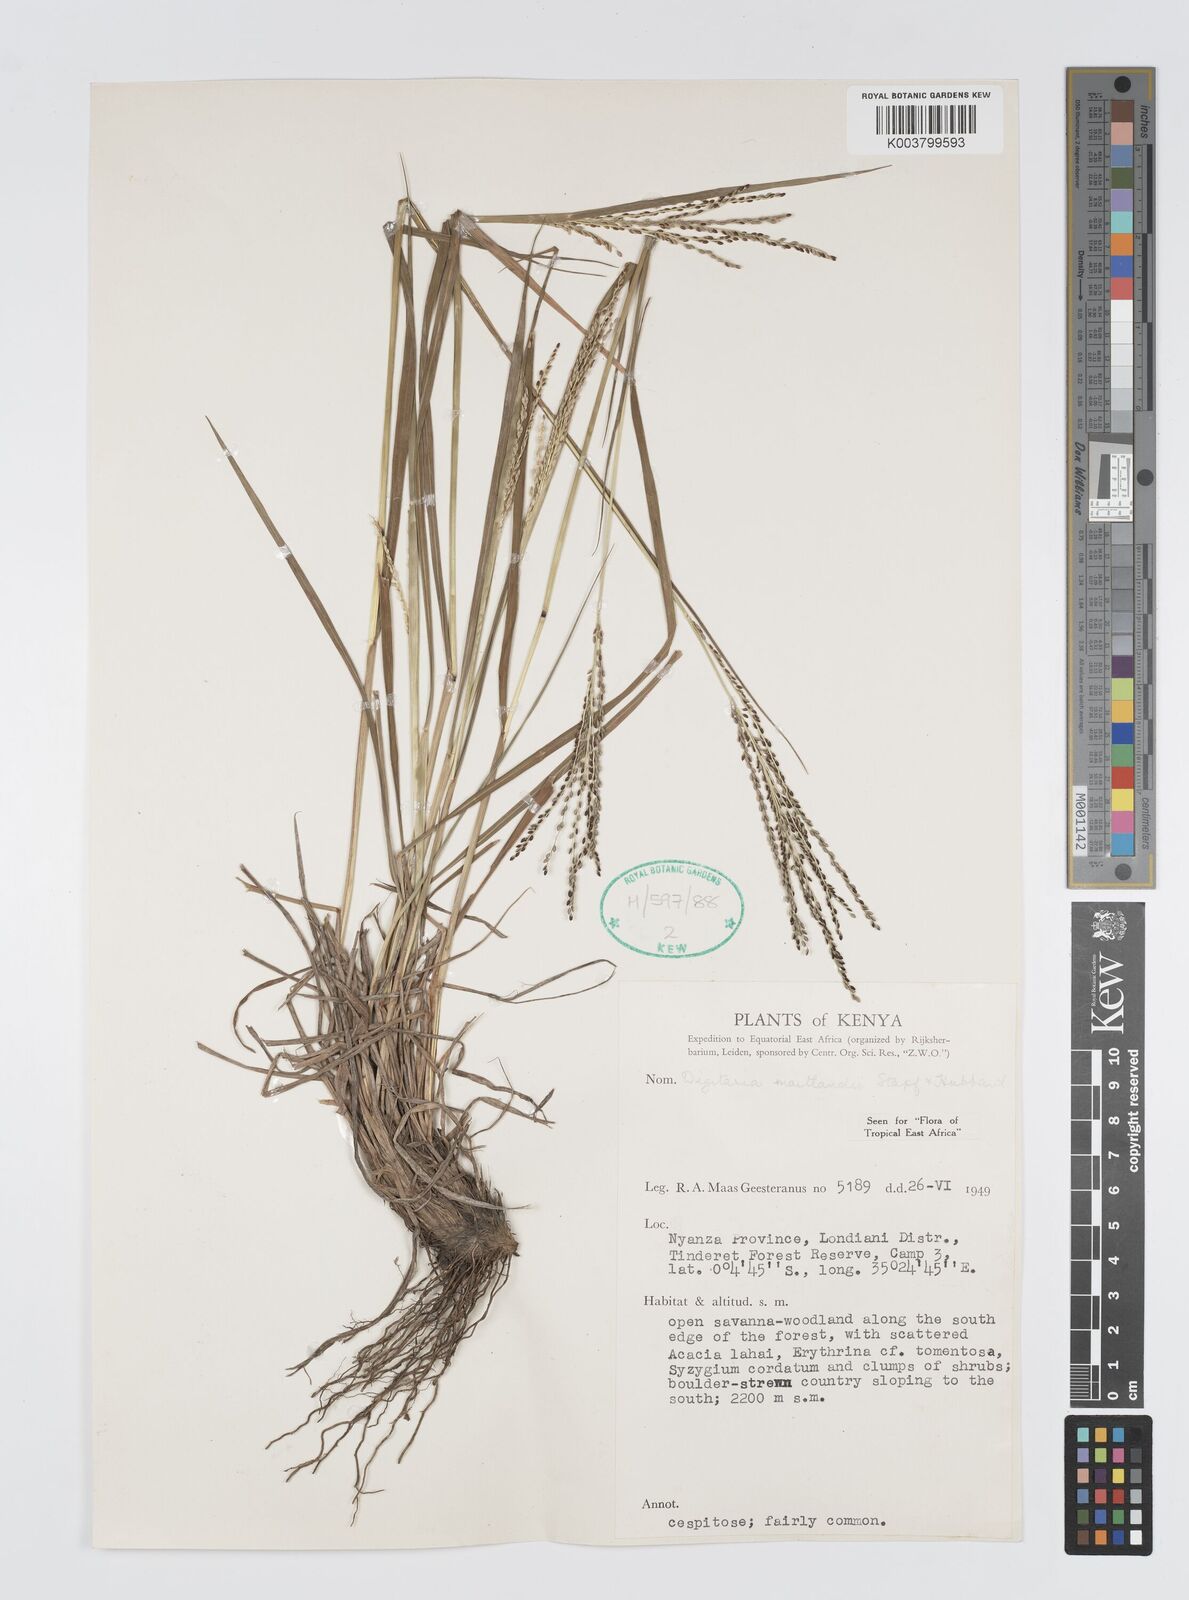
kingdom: Plantae
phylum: Tracheophyta
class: Liliopsida
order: Poales
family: Poaceae
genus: Digitaria
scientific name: Digitaria maitlandii
